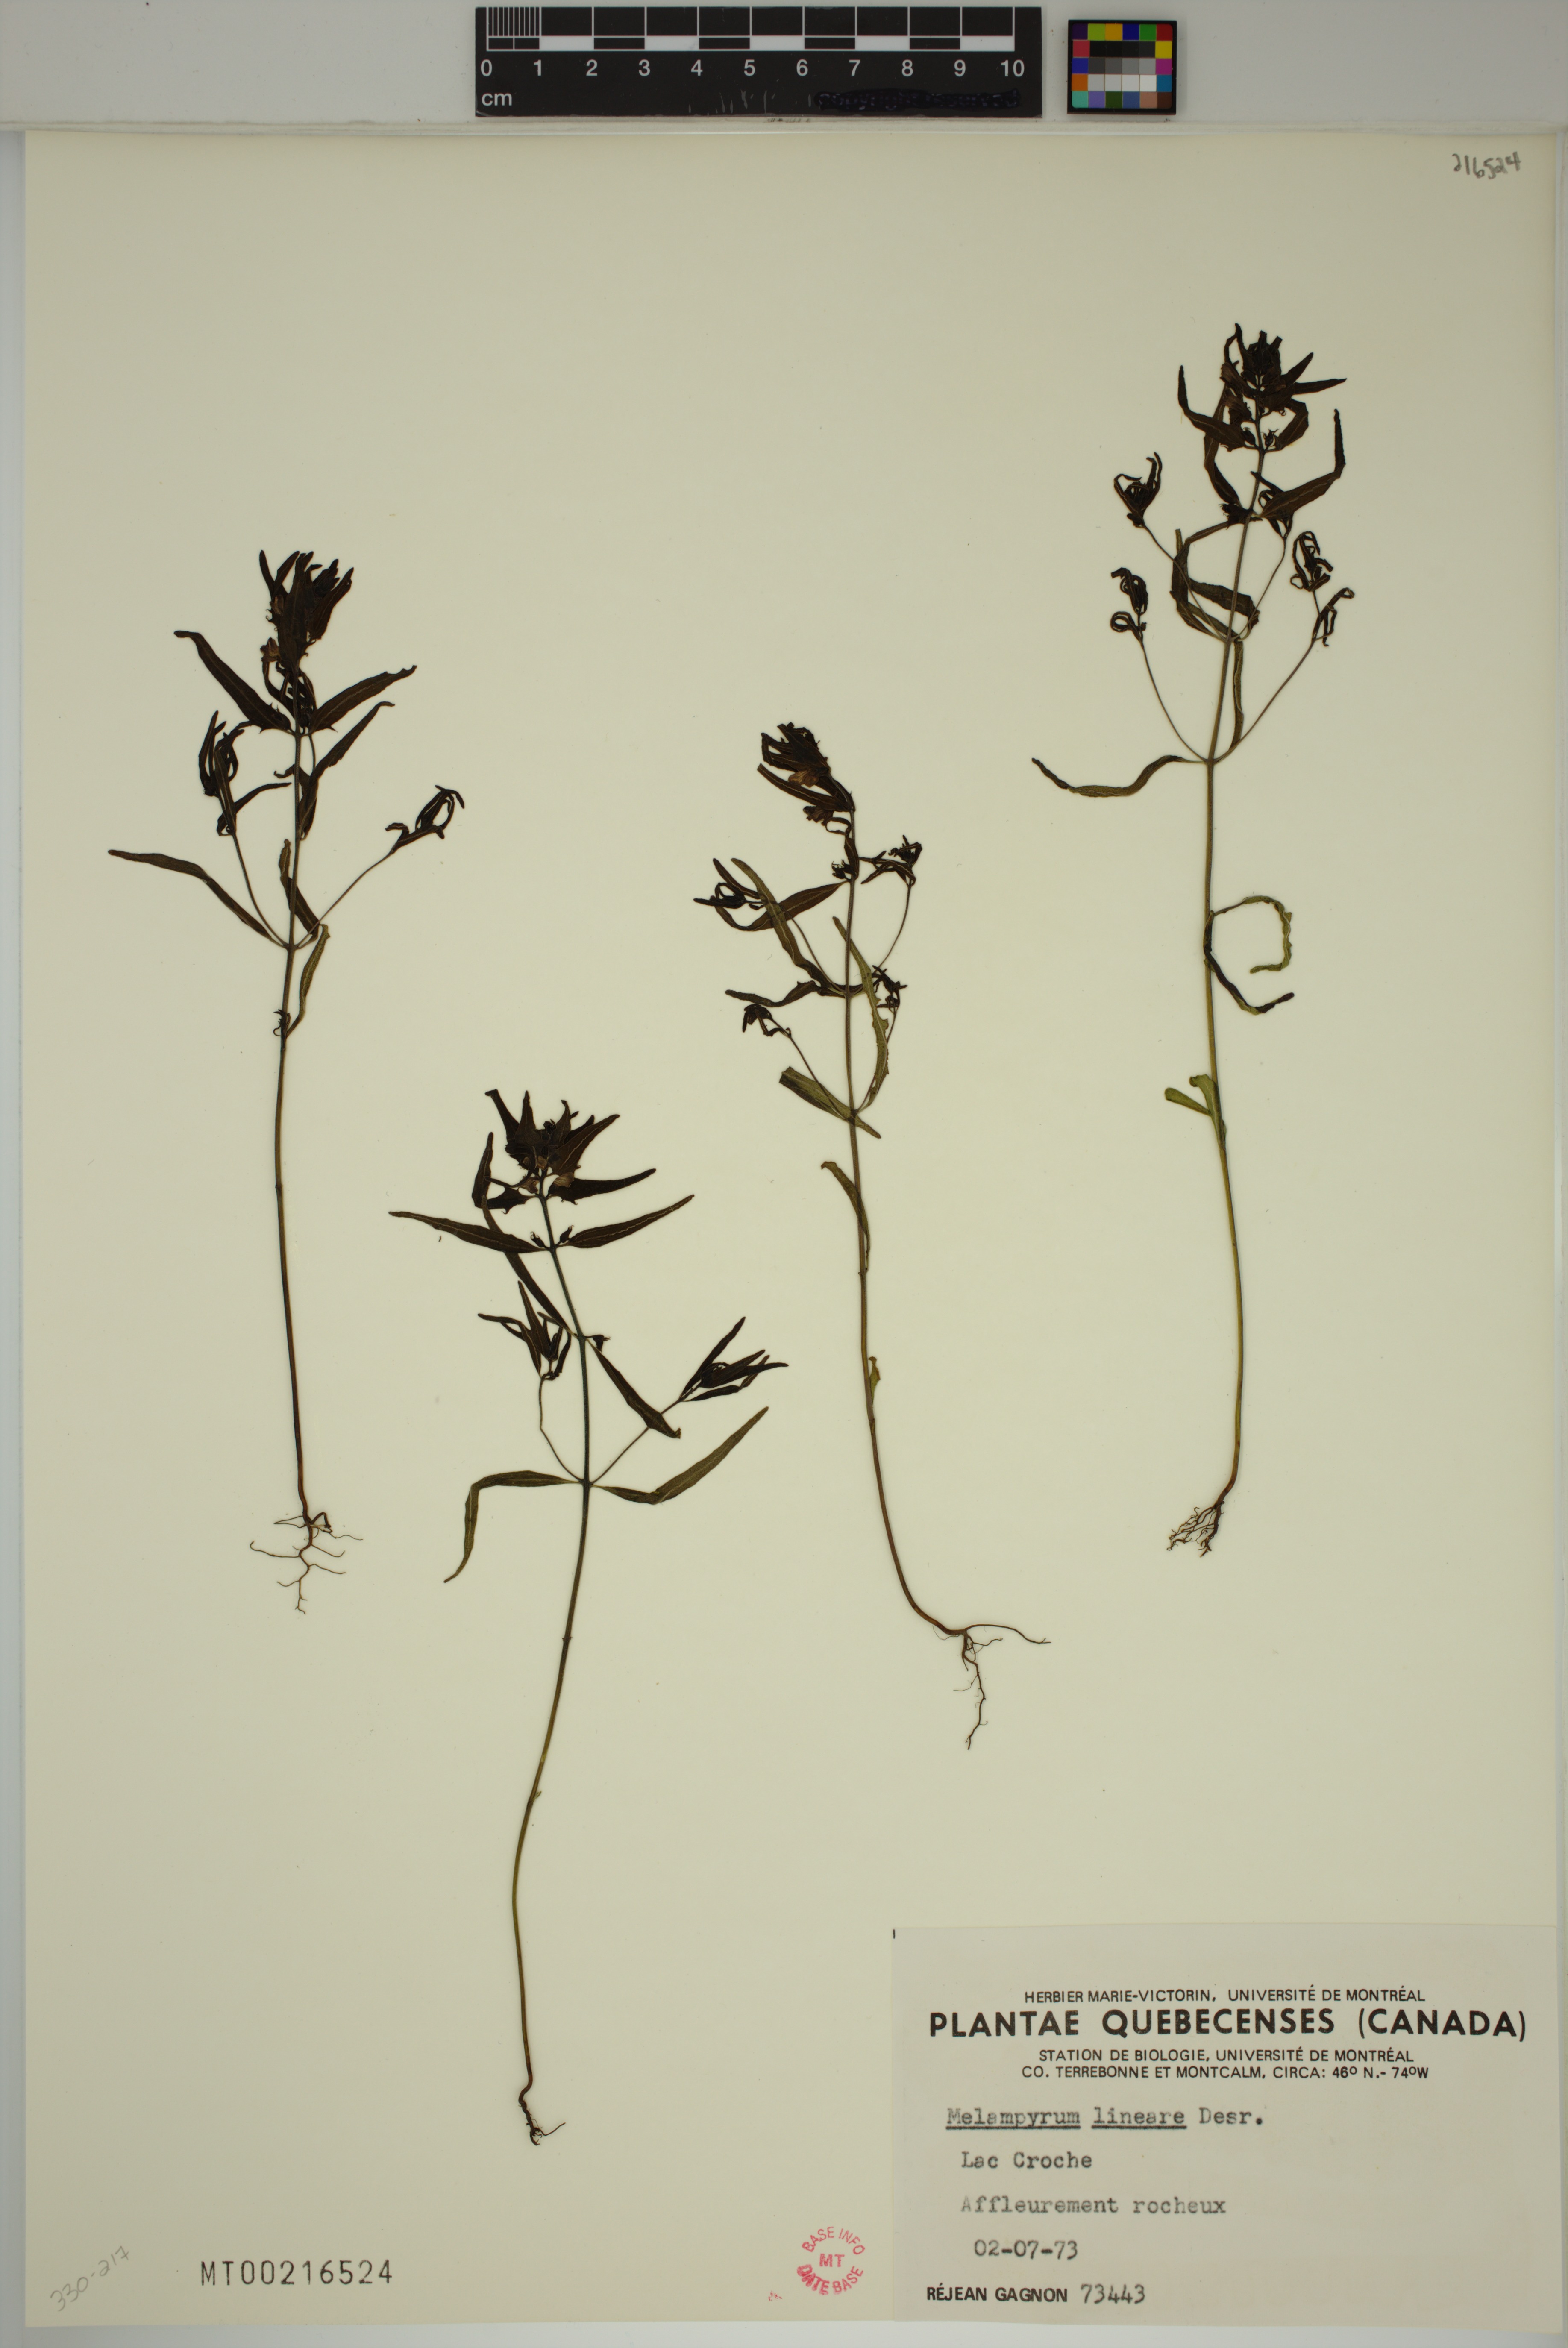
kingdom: Plantae
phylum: Tracheophyta
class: Magnoliopsida
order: Lamiales
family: Orobanchaceae
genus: Melampyrum
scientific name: Melampyrum lineare
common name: American cow-wheat
